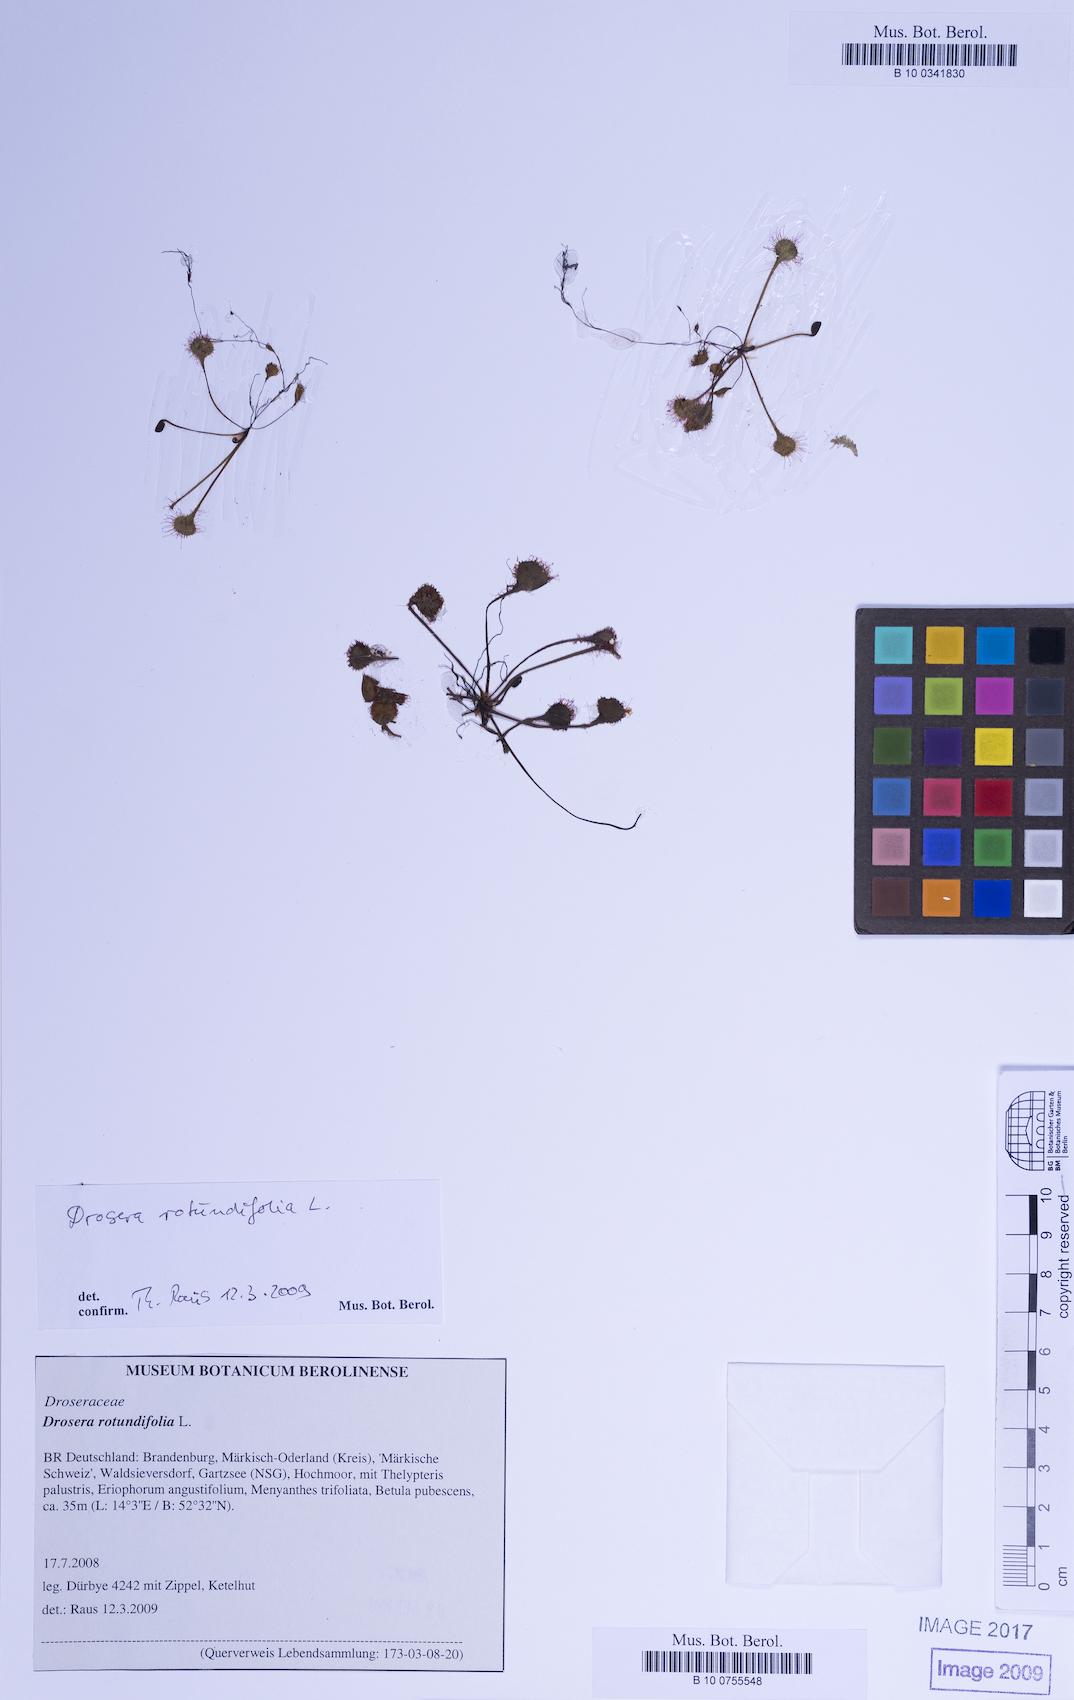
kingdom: Plantae
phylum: Tracheophyta
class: Magnoliopsida
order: Caryophyllales
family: Droseraceae
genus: Drosera
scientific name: Drosera rotundifolia
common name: Round-leaved sundew
